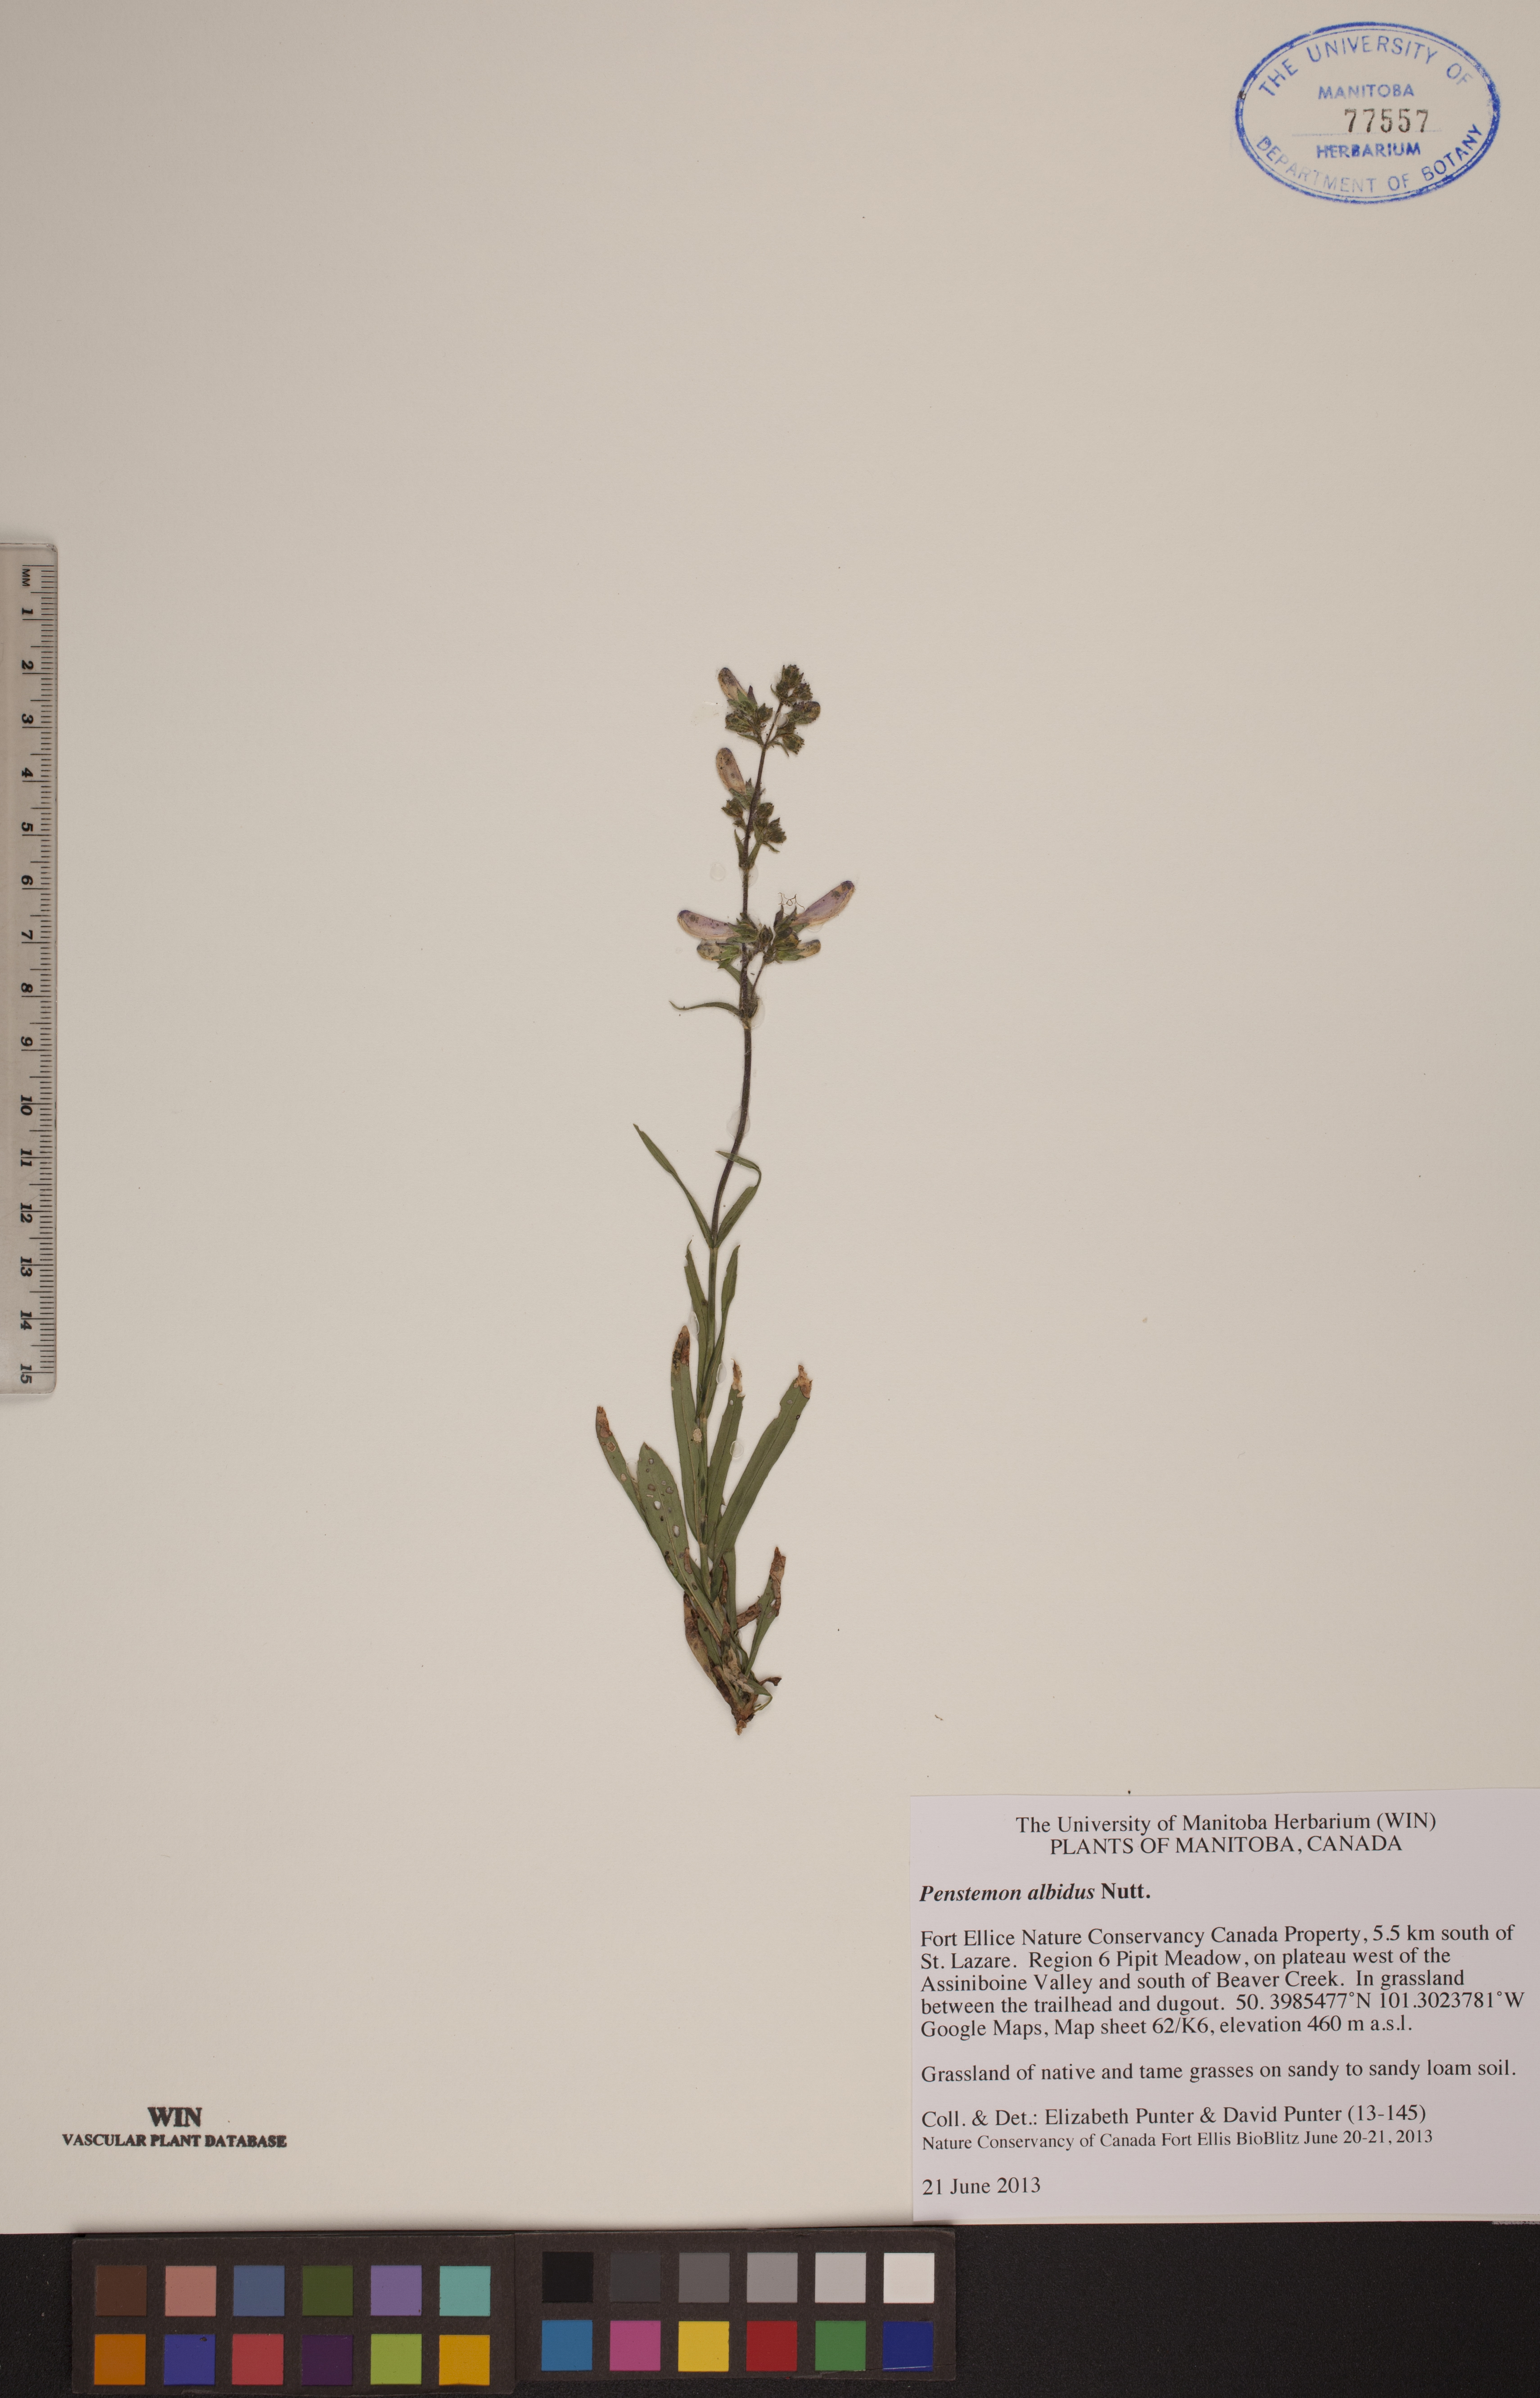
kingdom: Plantae
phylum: Tracheophyta
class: Magnoliopsida
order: Lamiales
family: Plantaginaceae
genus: Penstemon
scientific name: Penstemon albidus
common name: White beardtongue
